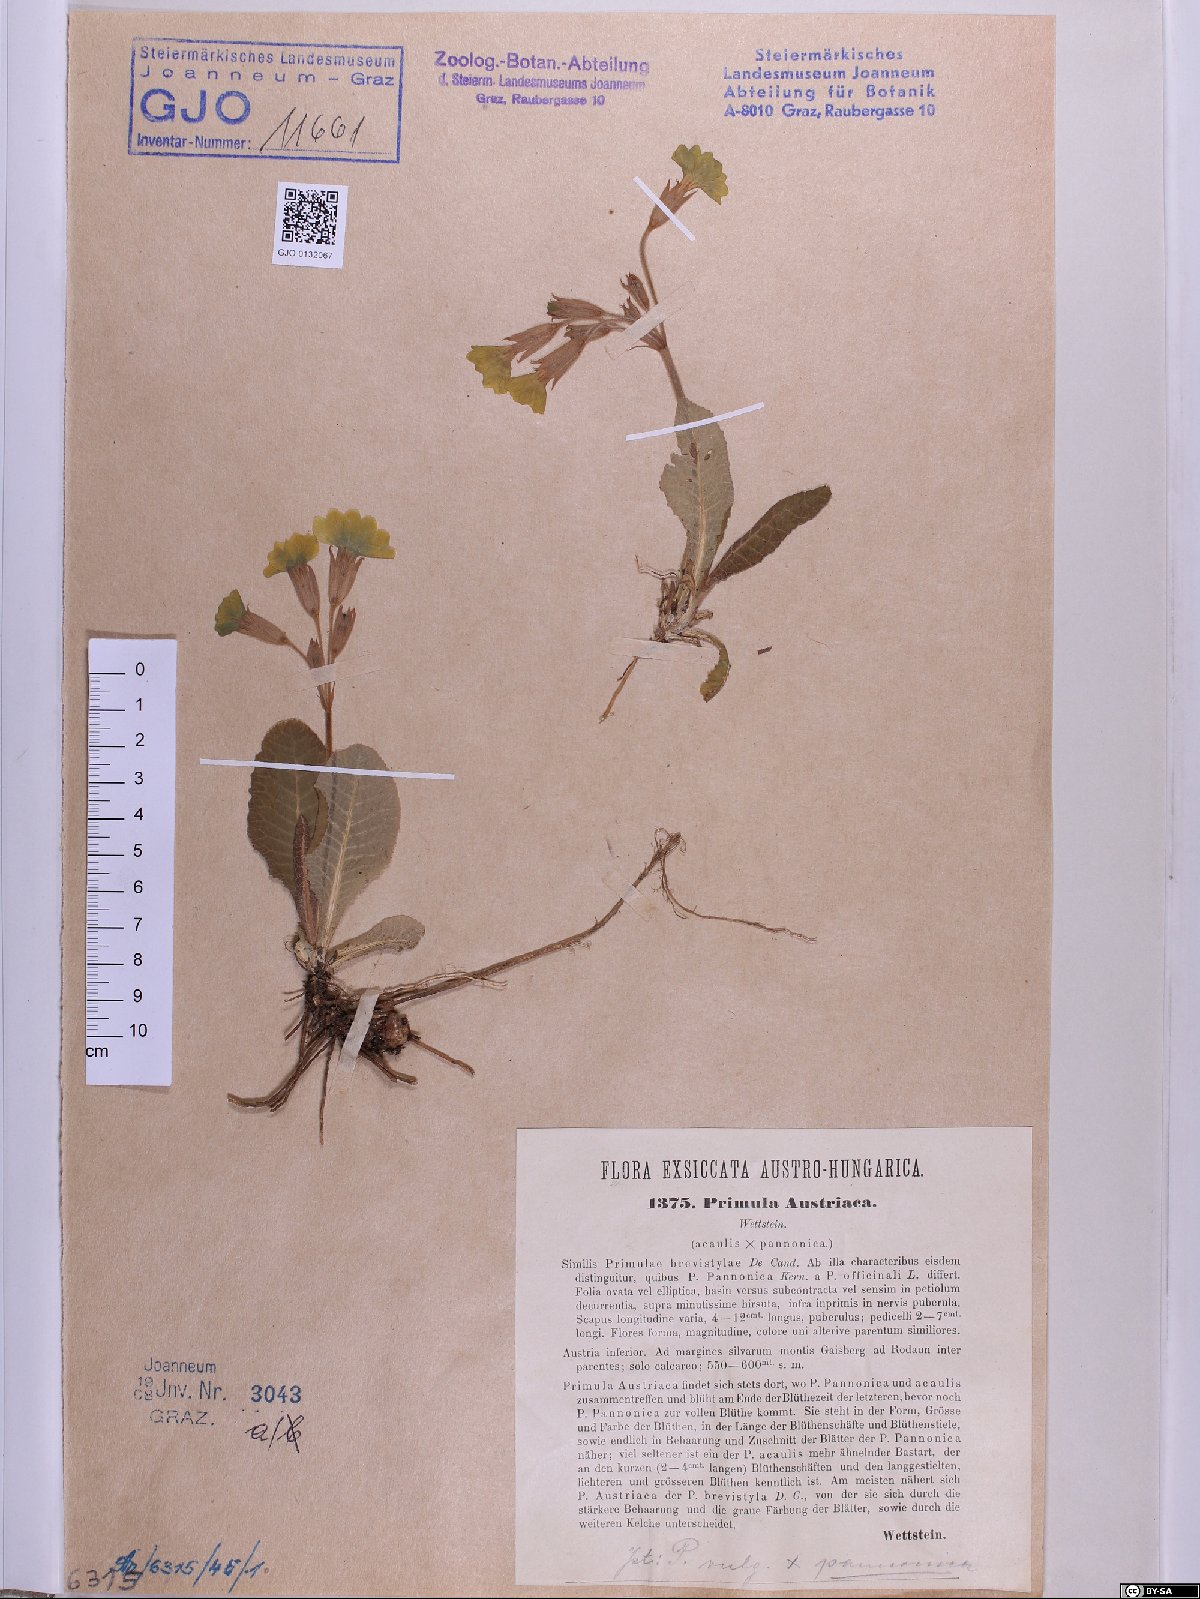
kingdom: Plantae
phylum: Tracheophyta
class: Magnoliopsida
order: Ericales
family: Primulaceae
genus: Primula
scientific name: Primula austriaca
